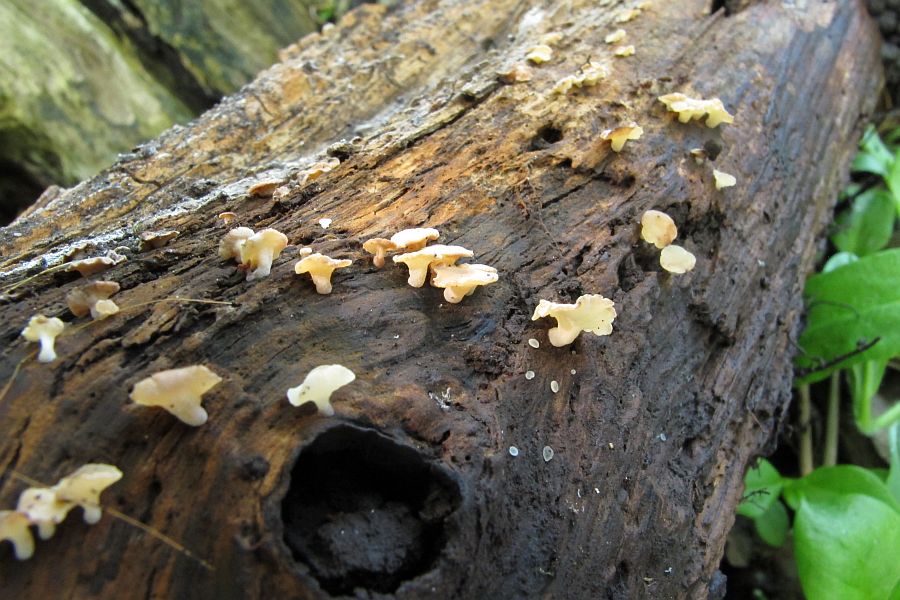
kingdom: Fungi
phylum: Ascomycota
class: Leotiomycetes
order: Helotiales
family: Helotiaceae
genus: Hymenoscyphus
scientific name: Hymenoscyphus imberbis
